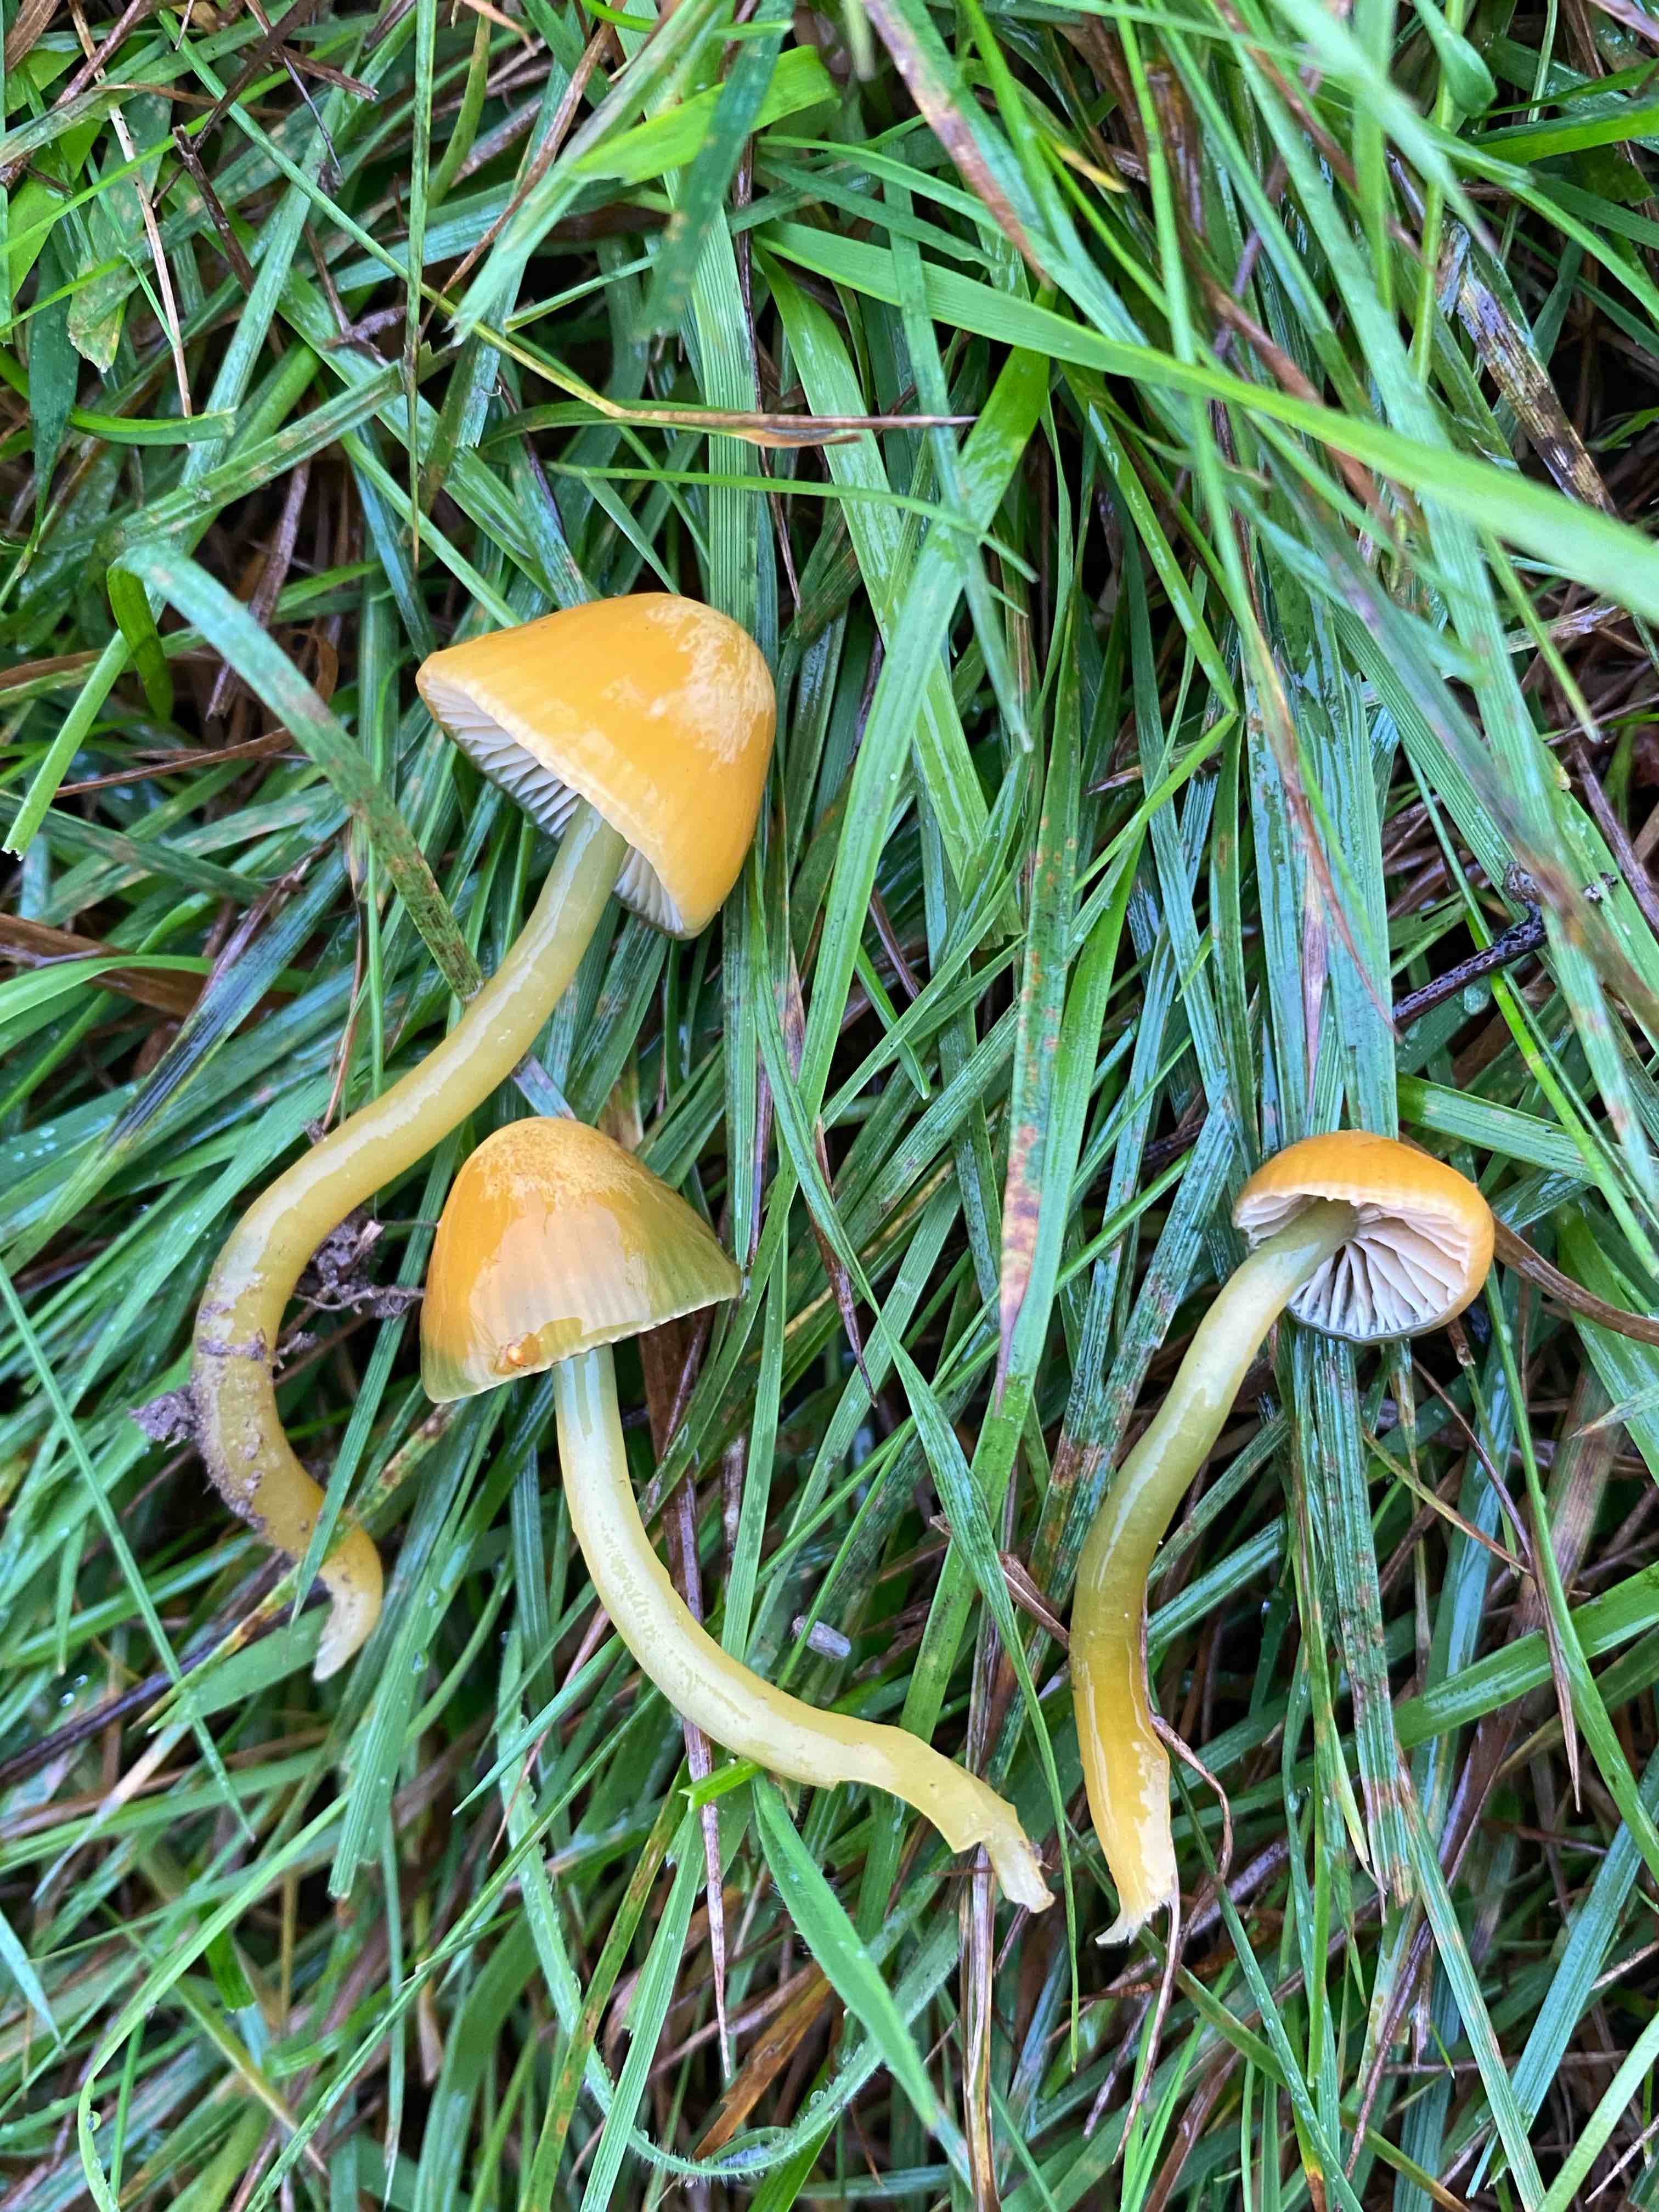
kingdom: Fungi
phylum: Basidiomycota
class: Agaricomycetes
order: Agaricales
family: Hygrophoraceae
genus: Gliophorus
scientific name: Gliophorus psittacinus
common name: papegøje-vokshat
